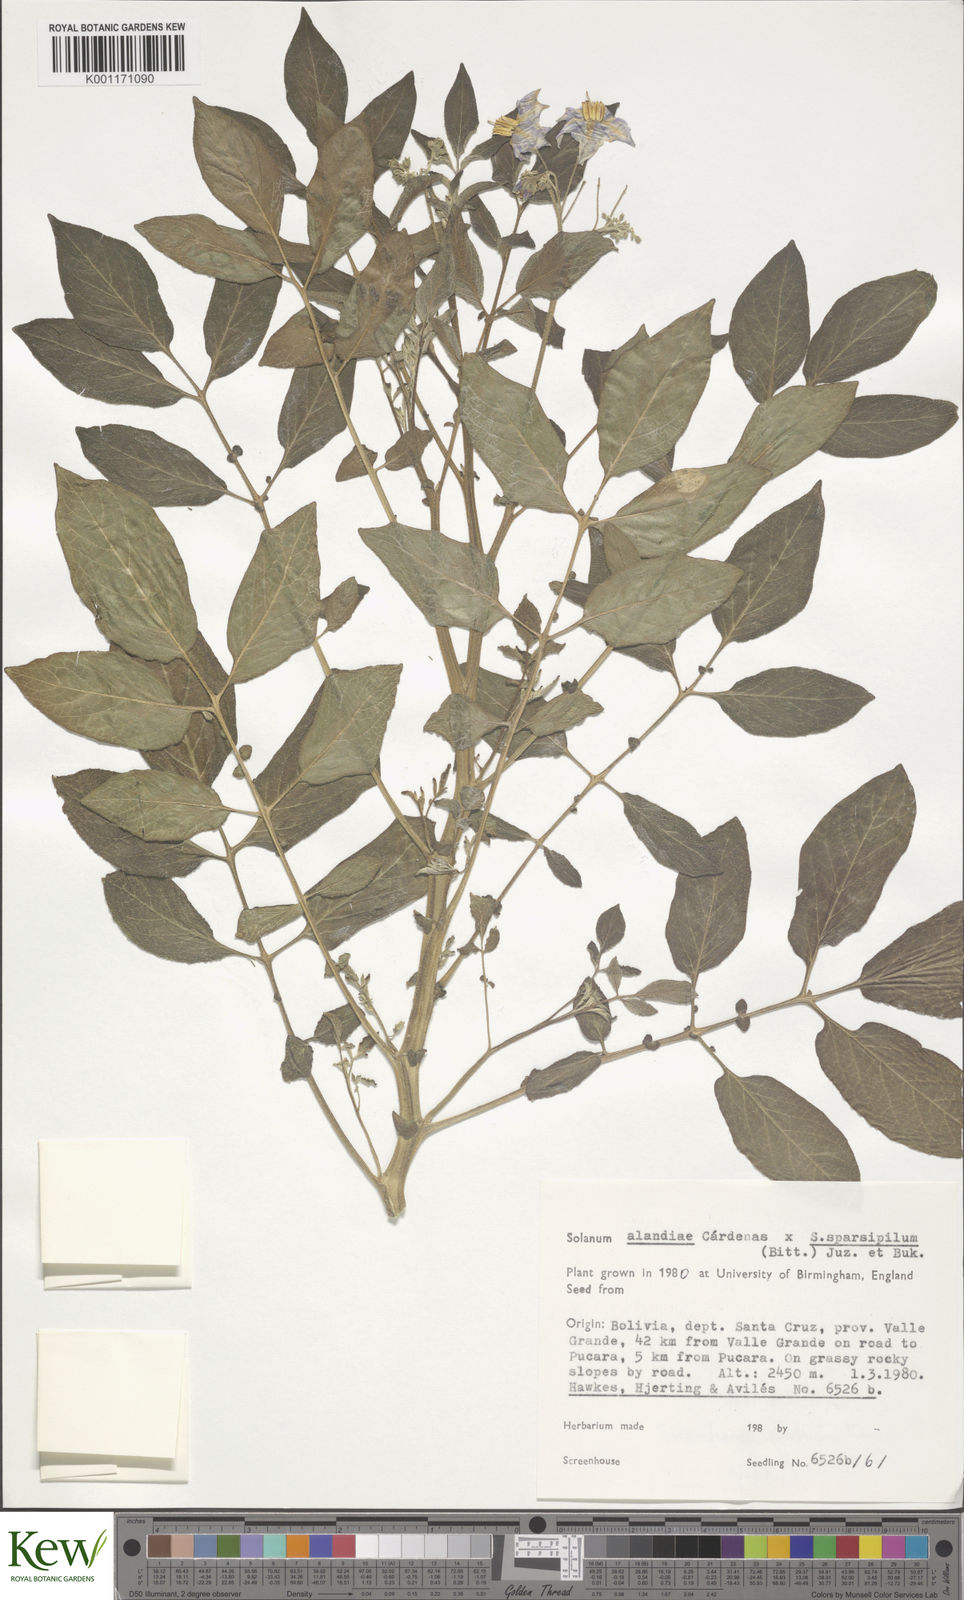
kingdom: Plantae
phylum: Tracheophyta
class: Magnoliopsida
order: Solanales
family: Solanaceae
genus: Solanum
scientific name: Solanum
